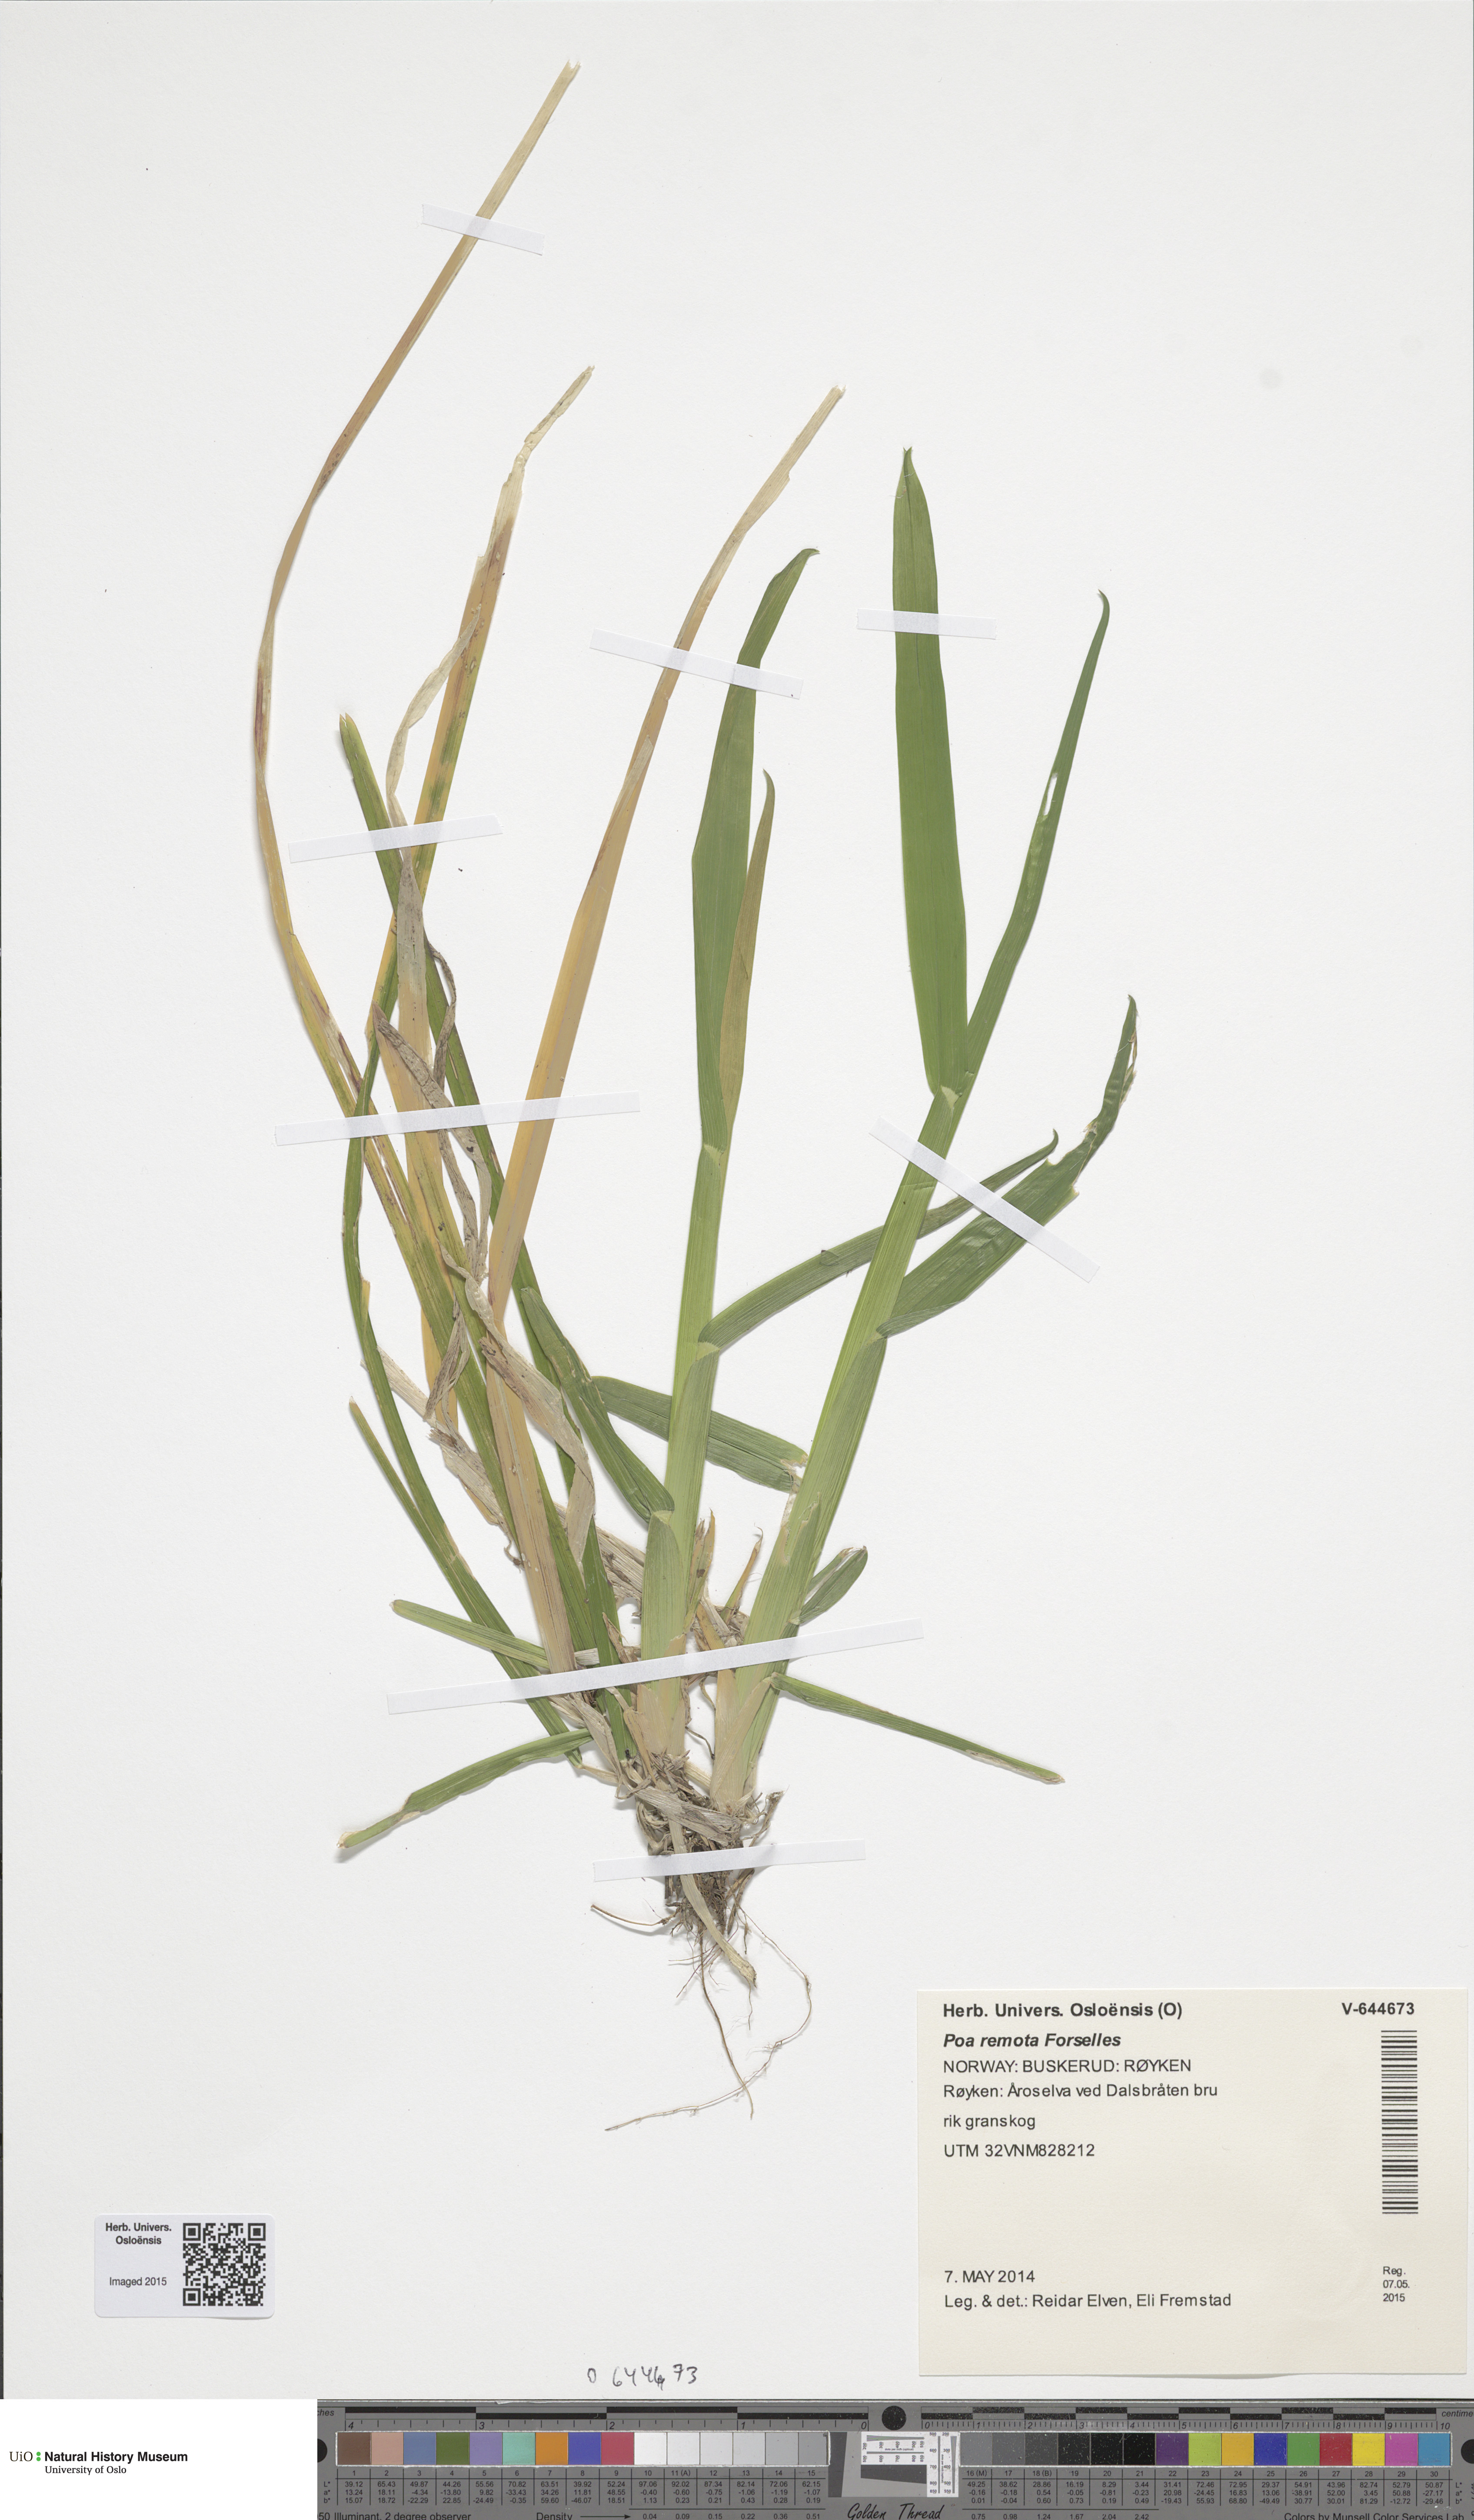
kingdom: Plantae
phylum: Tracheophyta
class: Liliopsida
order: Poales
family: Poaceae
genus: Poa
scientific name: Poa remota
